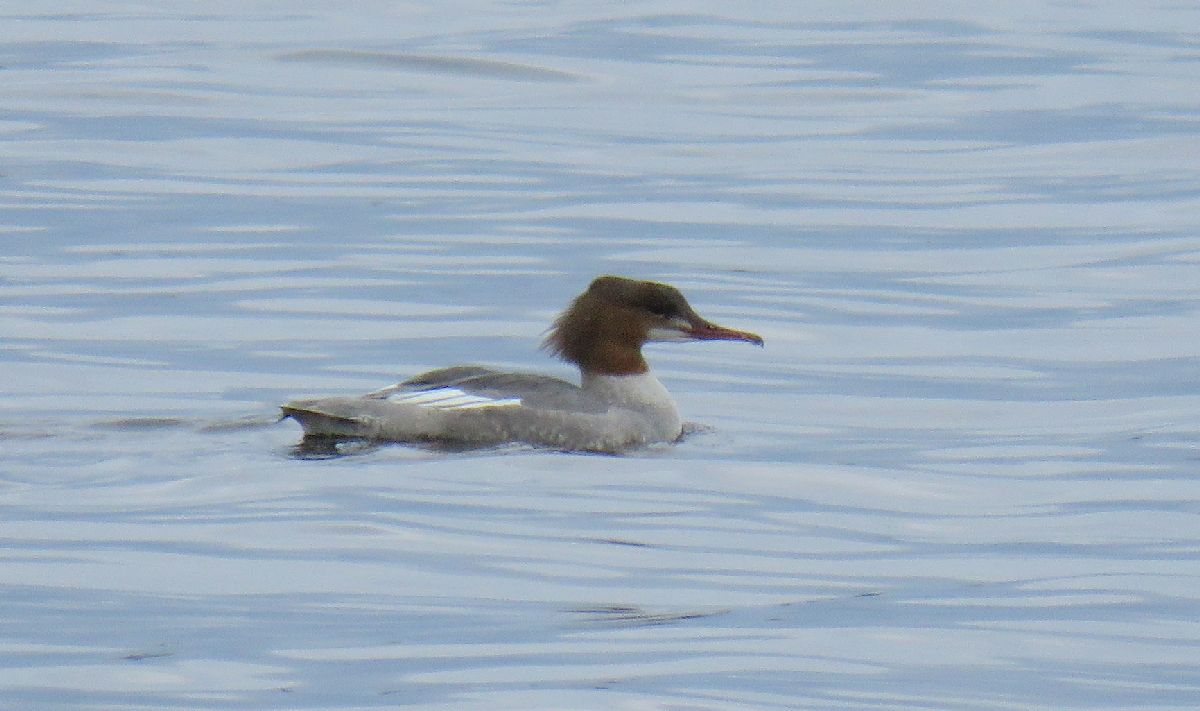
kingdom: Animalia
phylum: Chordata
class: Aves
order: Anseriformes
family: Anatidae
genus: Mergus
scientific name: Mergus merganser
